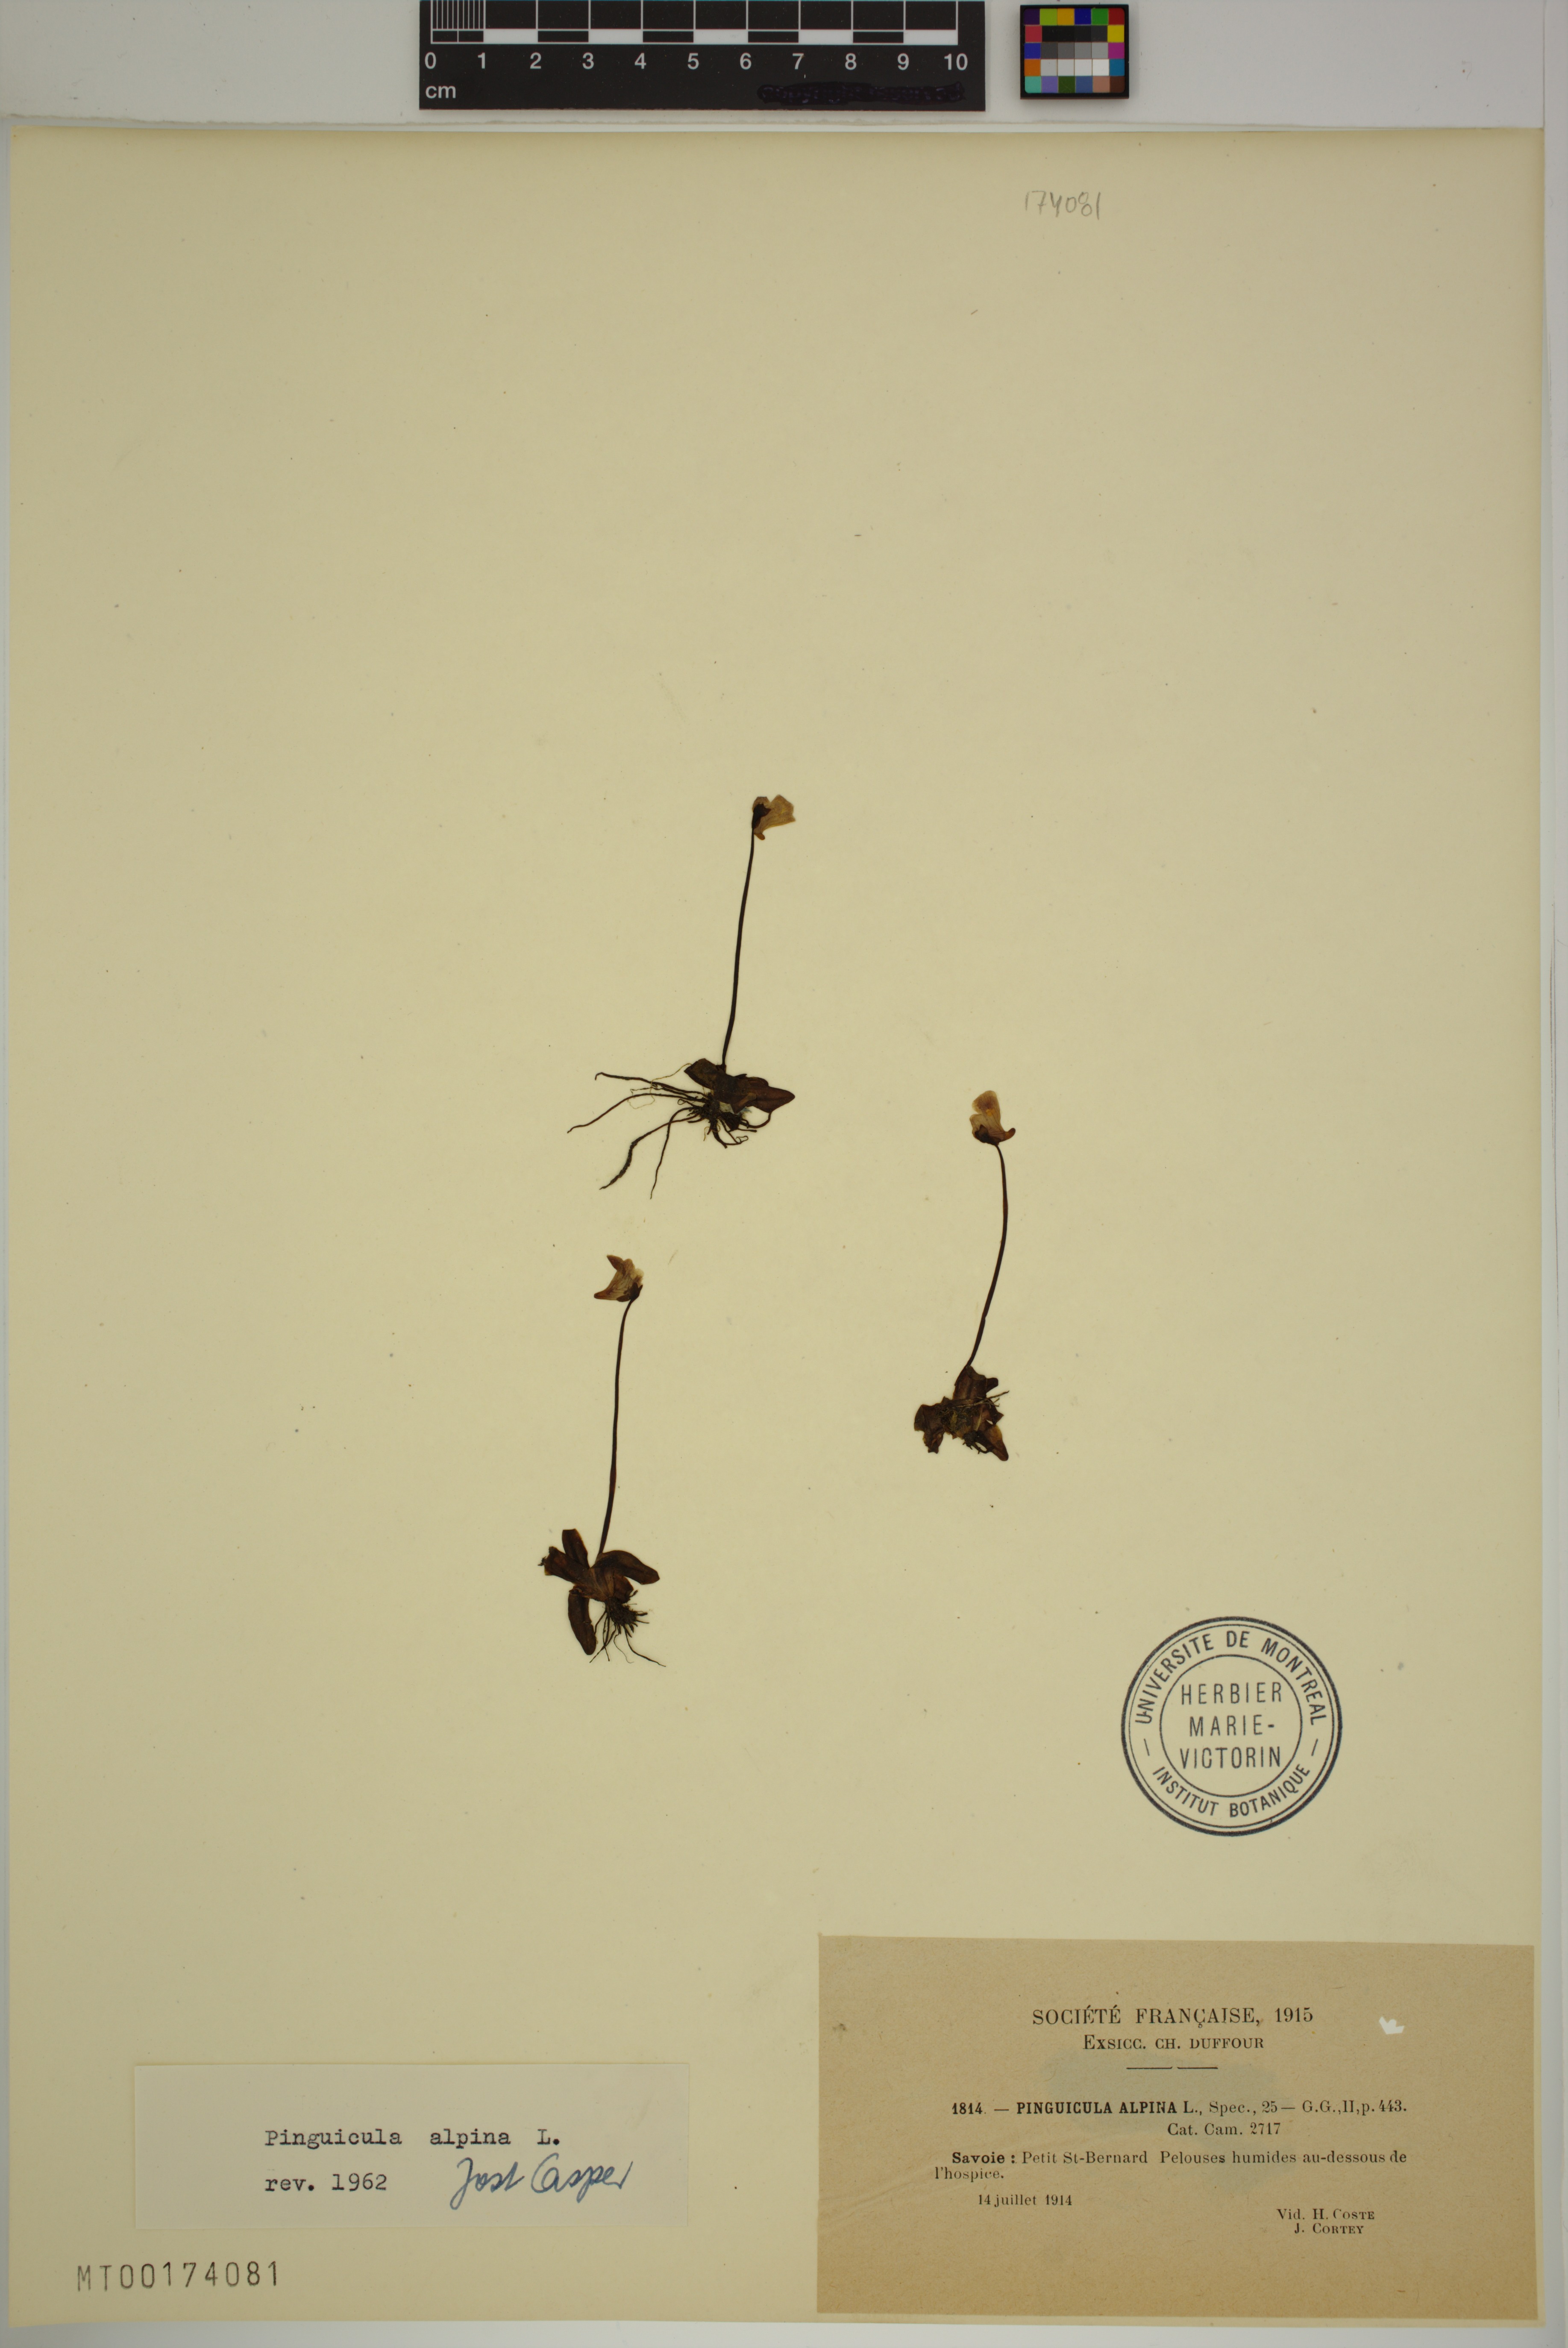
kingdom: Plantae
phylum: Tracheophyta
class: Magnoliopsida
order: Lamiales
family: Lentibulariaceae
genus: Pinguicula
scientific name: Pinguicula alpina
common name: Alpine butterwort
